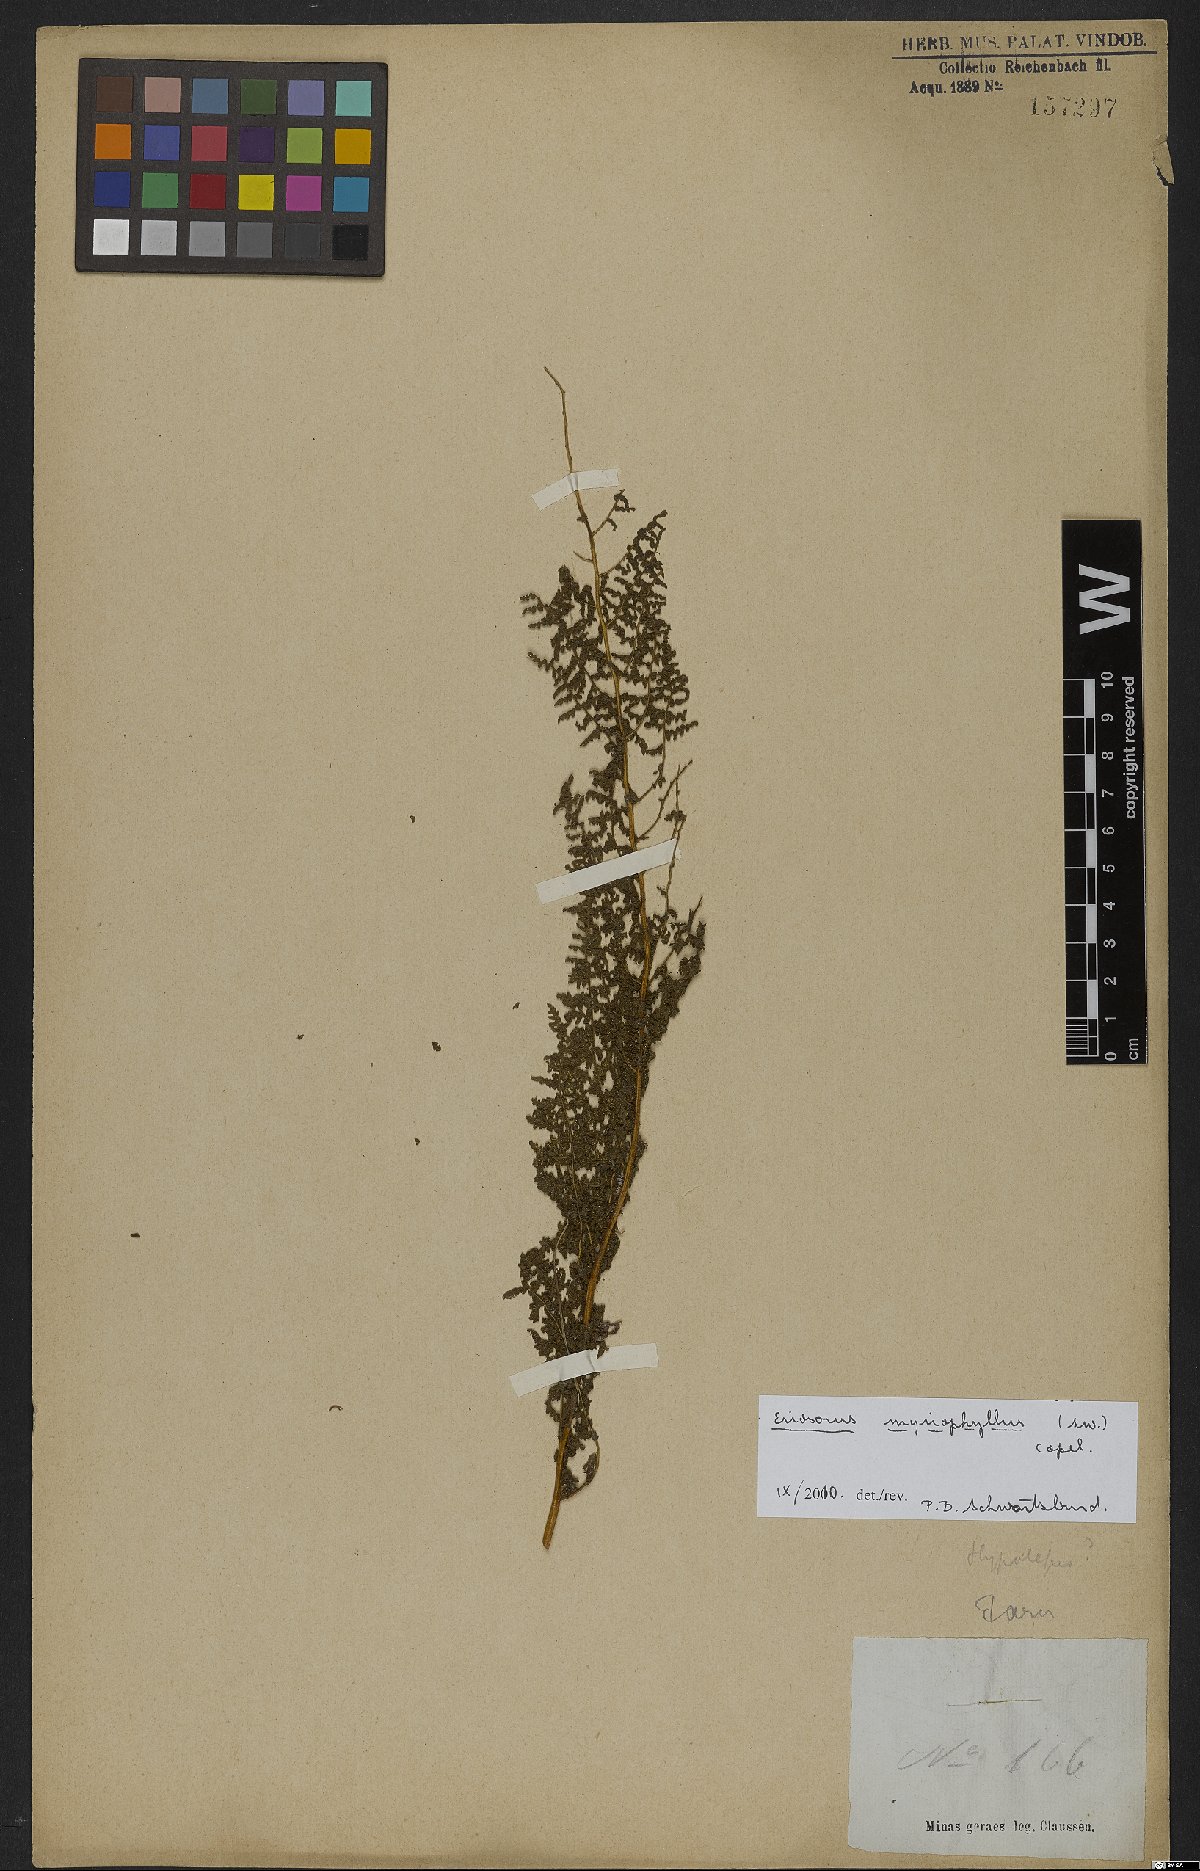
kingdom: Plantae
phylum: Tracheophyta
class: Polypodiopsida
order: Polypodiales
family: Pteridaceae
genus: Tryonia
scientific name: Tryonia myriophylla
